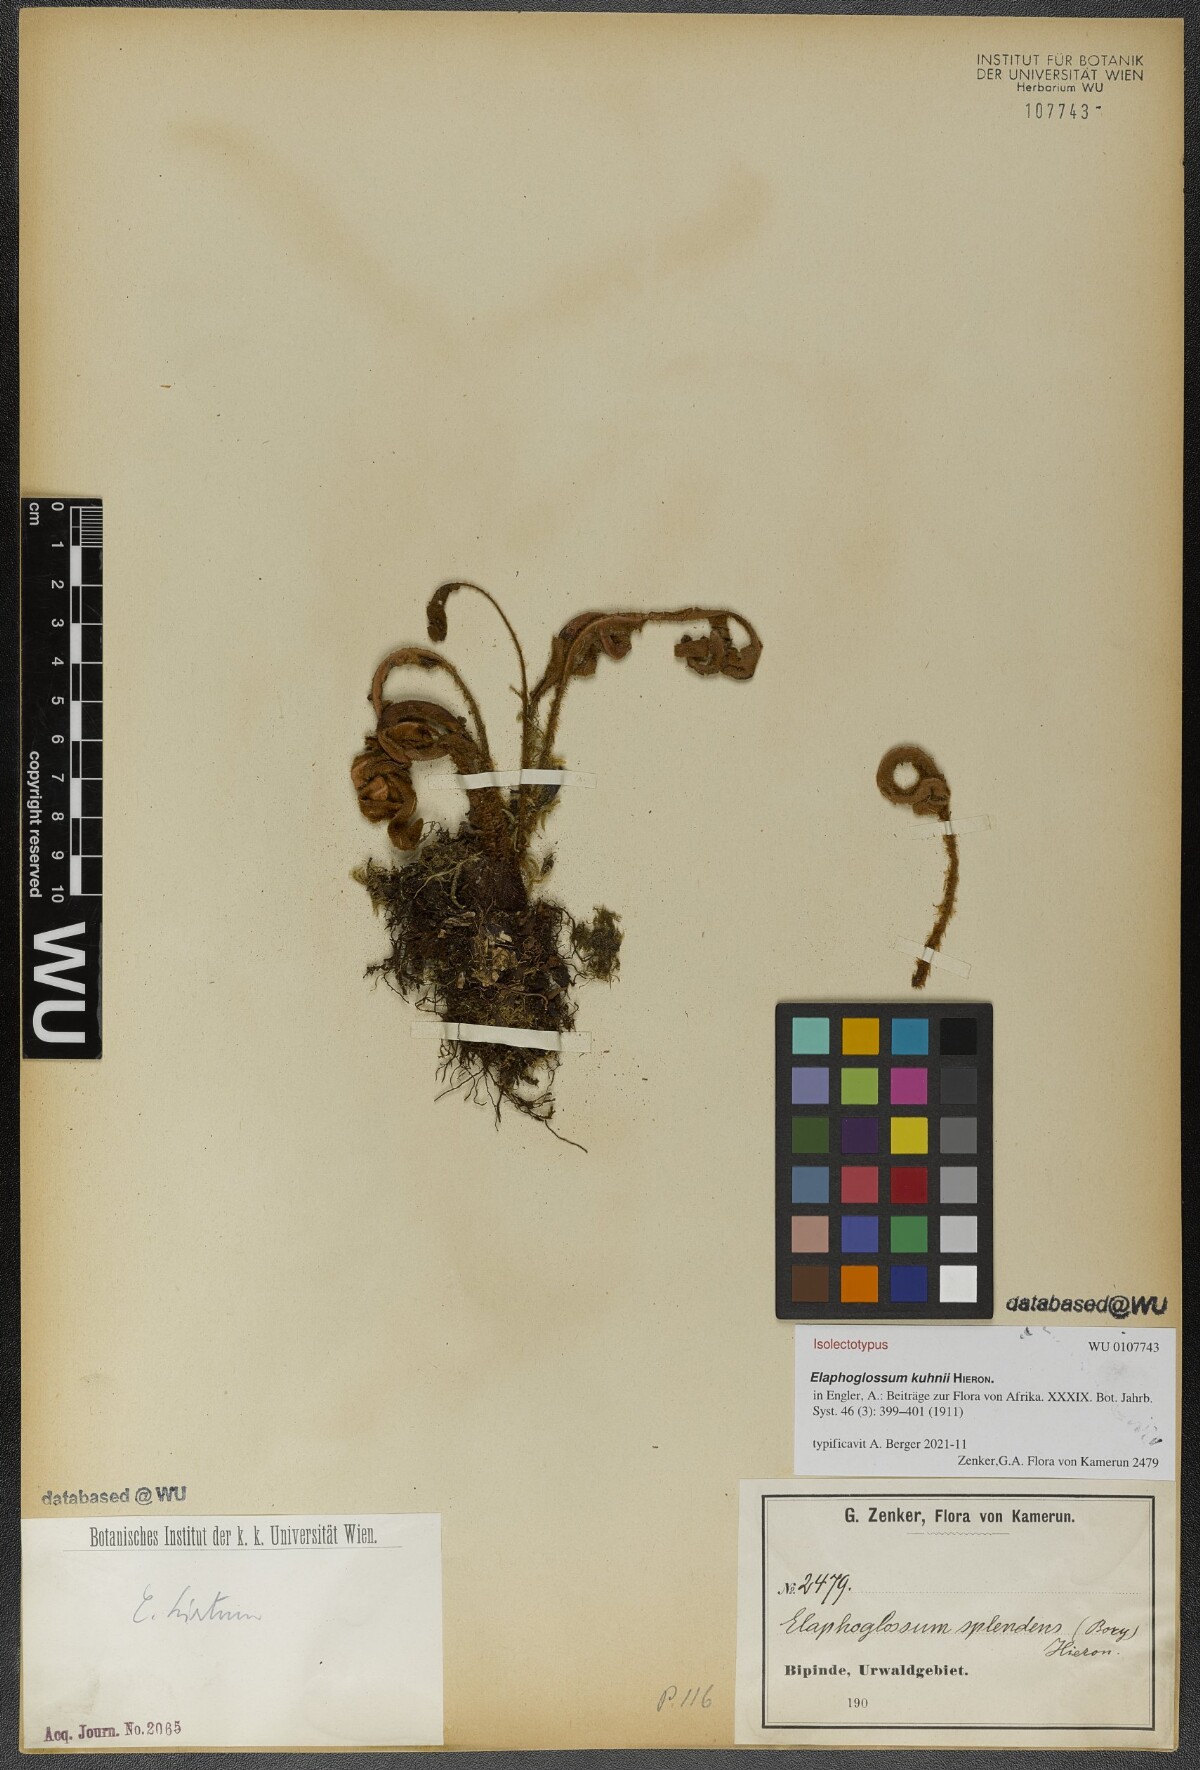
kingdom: Plantae
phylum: Tracheophyta
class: Polypodiopsida
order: Polypodiales
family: Dryopteridaceae
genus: Elaphoglossum
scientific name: Elaphoglossum kuhnii
